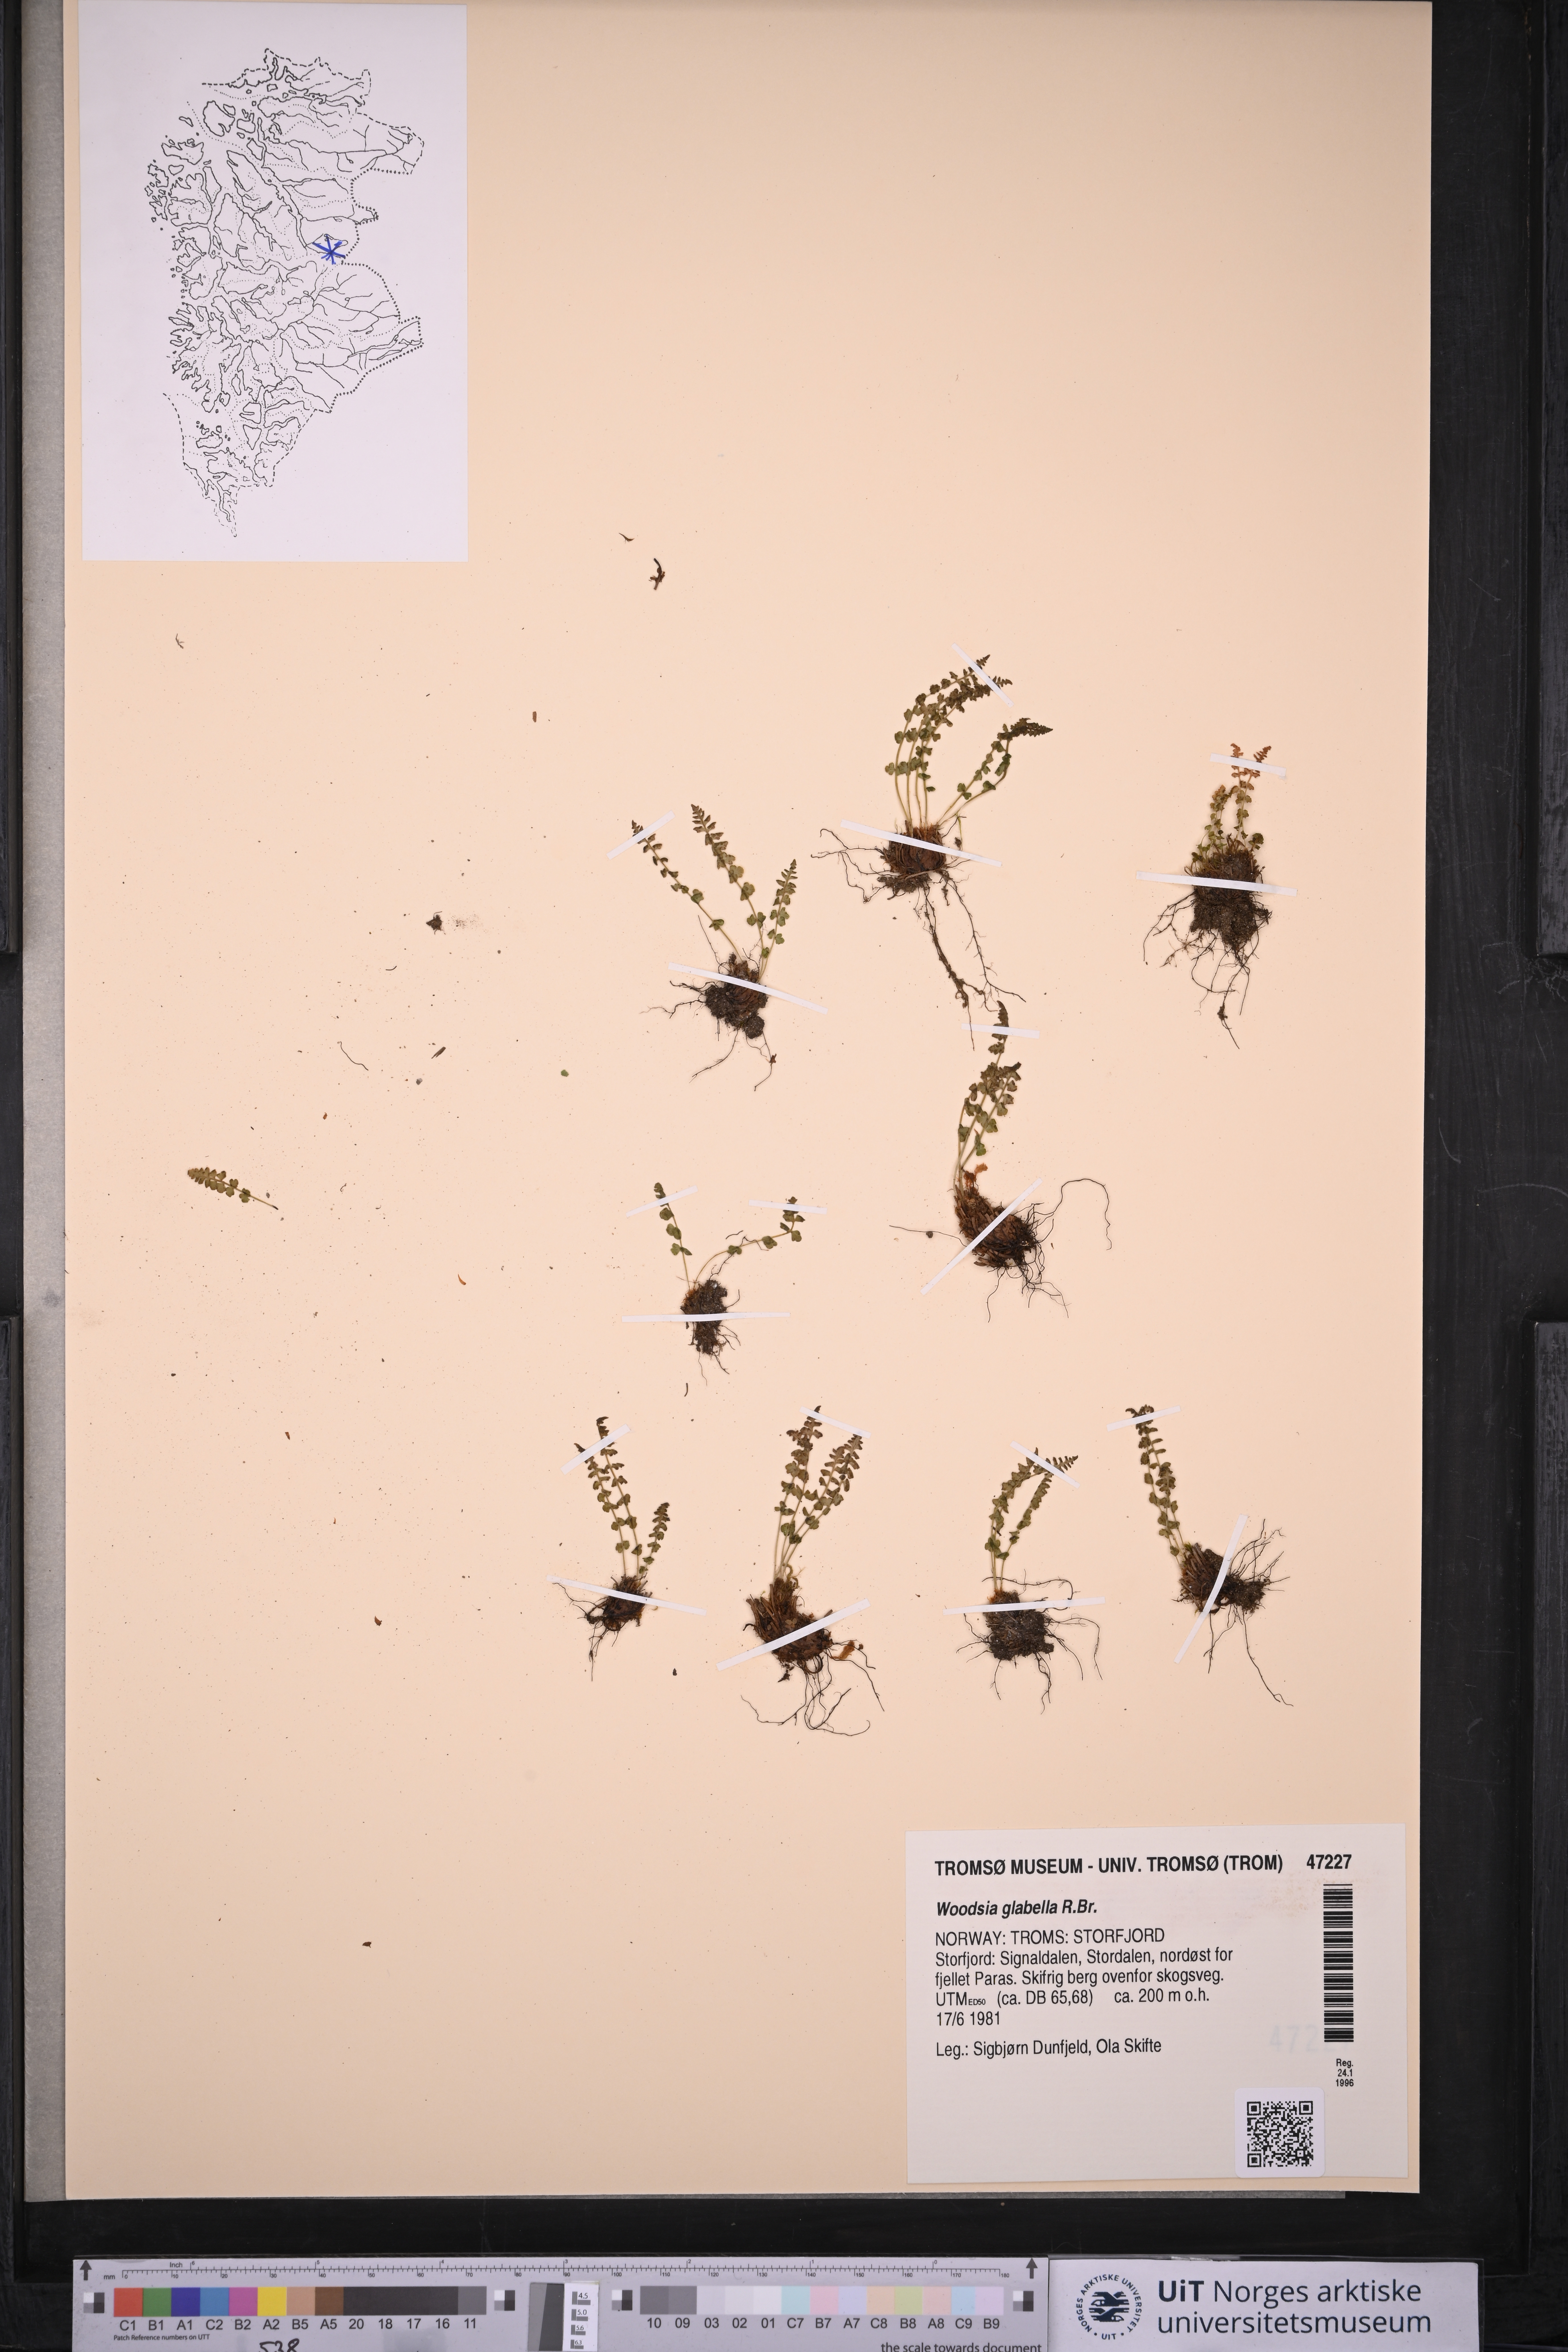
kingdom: Plantae
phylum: Tracheophyta
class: Polypodiopsida
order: Polypodiales
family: Woodsiaceae
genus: Woodsia
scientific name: Woodsia glabella
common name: Smooth woodsia
